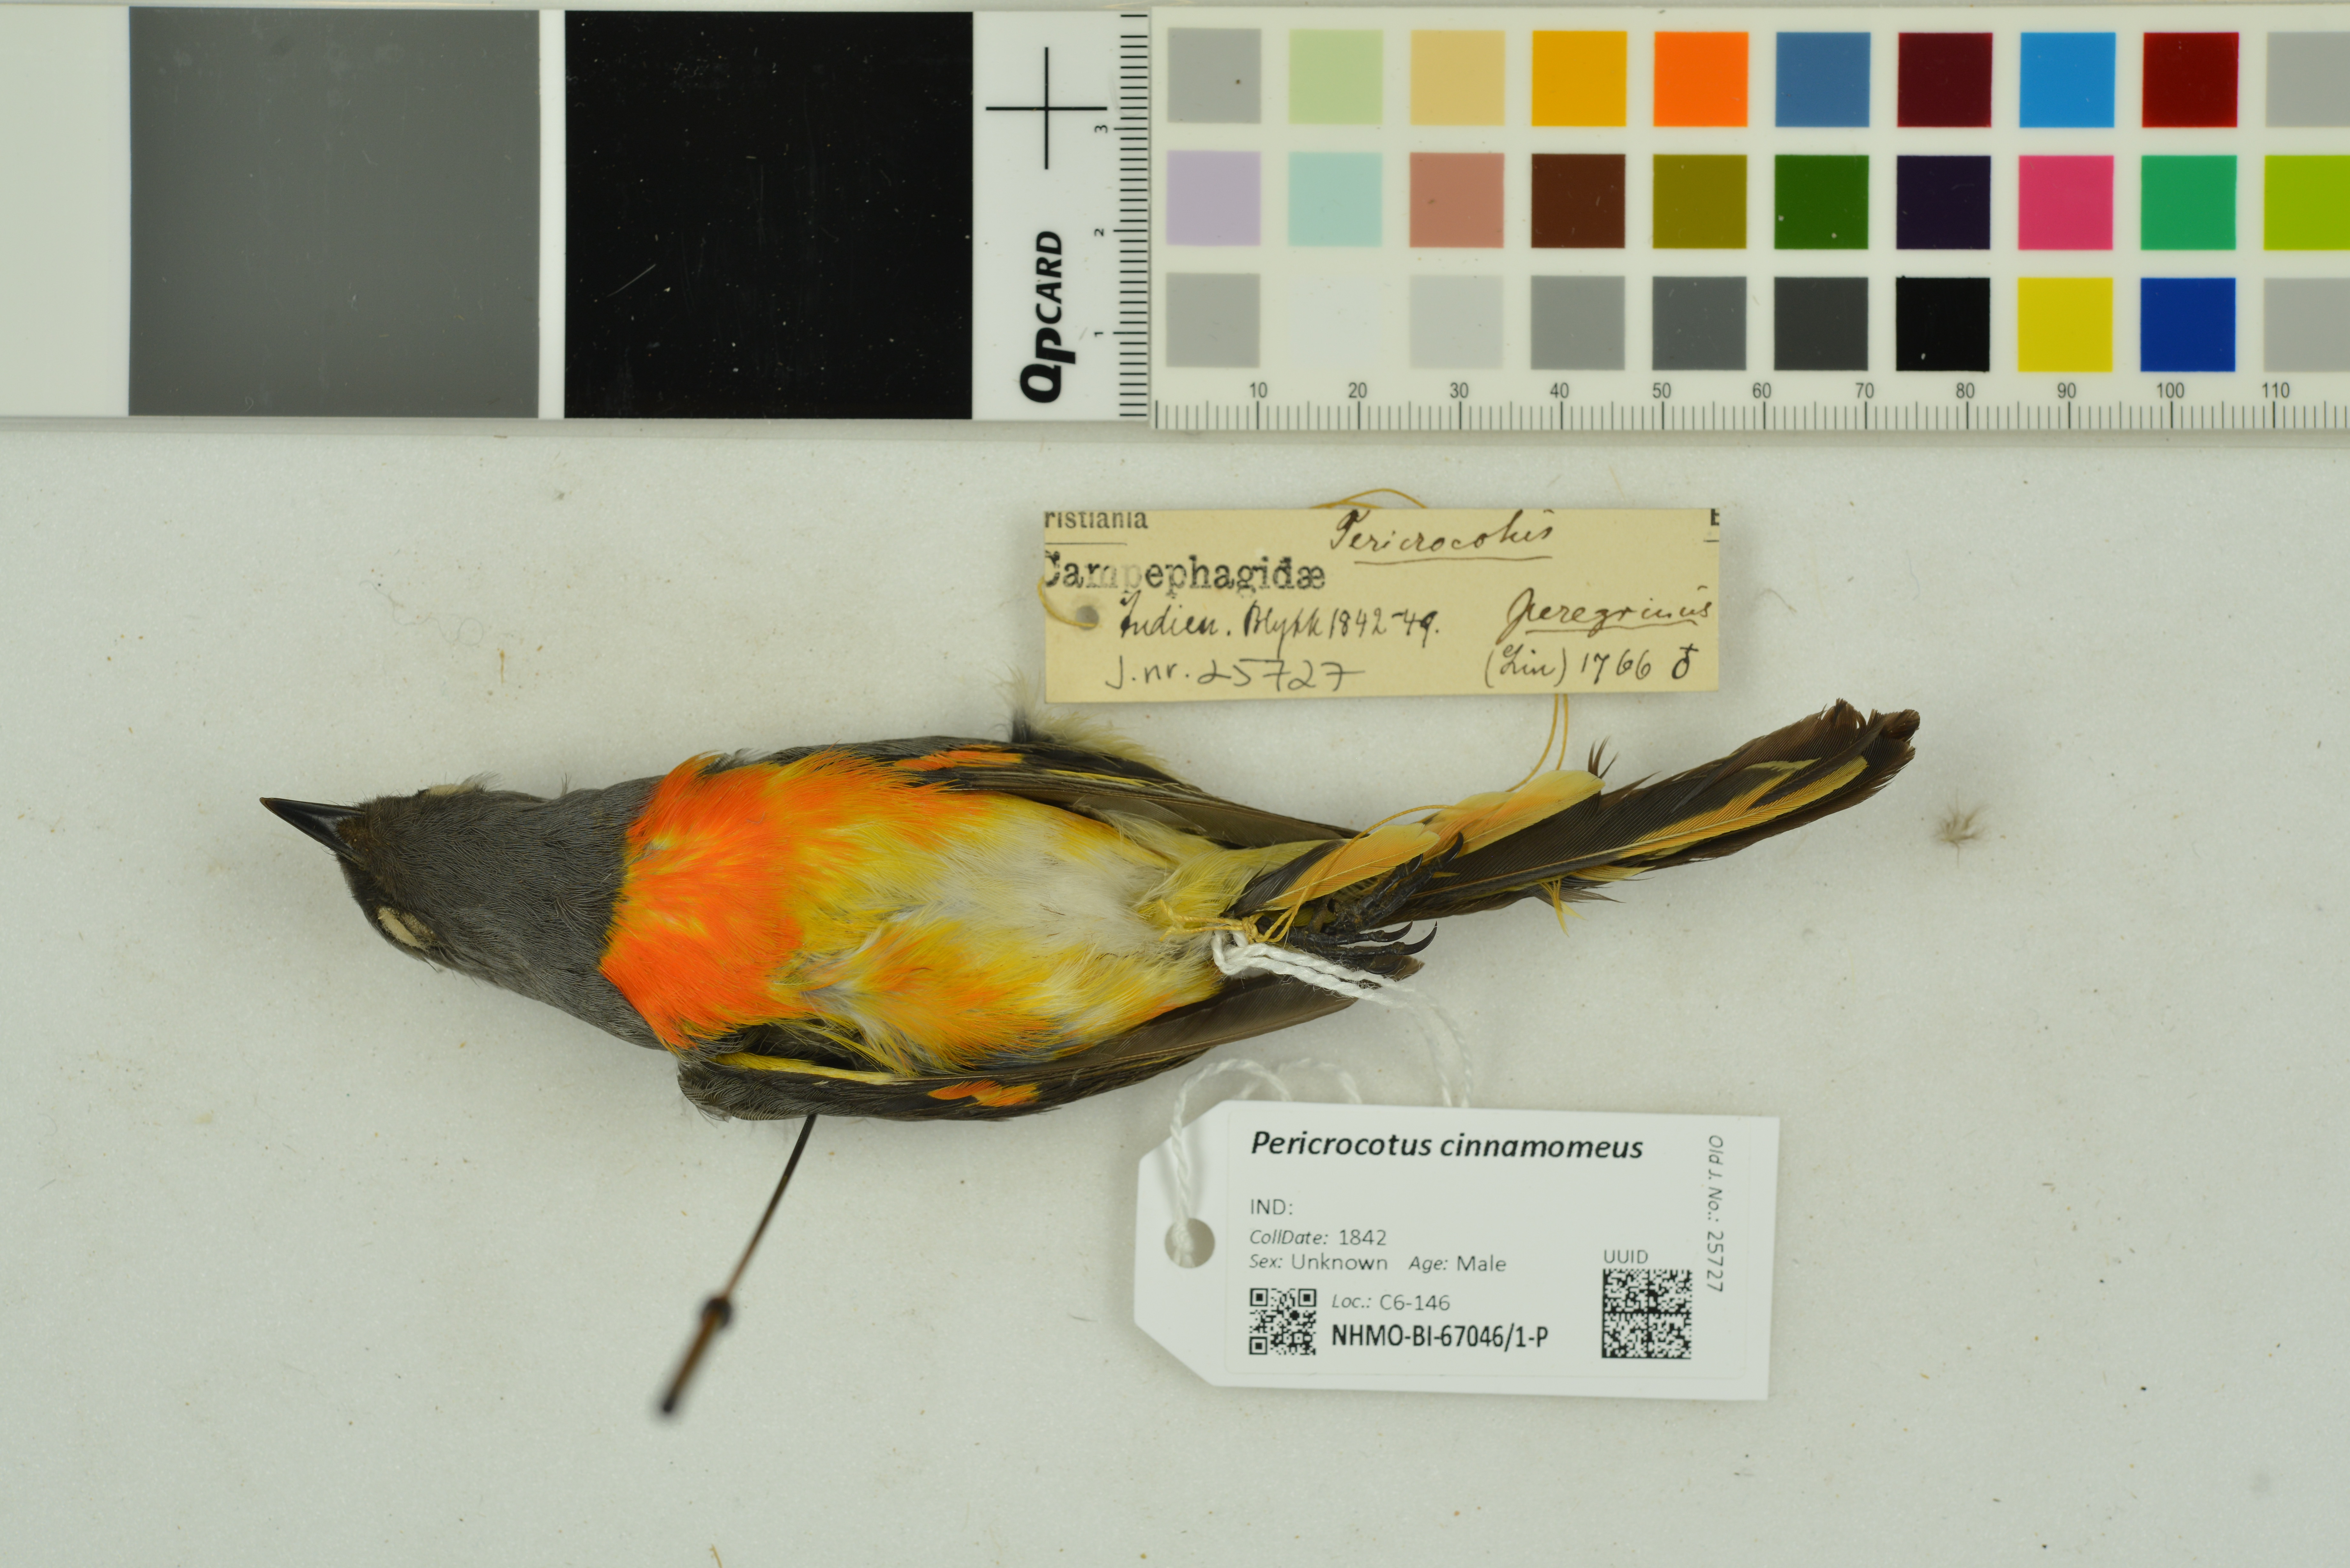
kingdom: Animalia
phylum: Chordata
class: Aves
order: Passeriformes
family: Campephagidae
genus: Pericrocotus
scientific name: Pericrocotus cinnamomeus
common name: Small minivet
